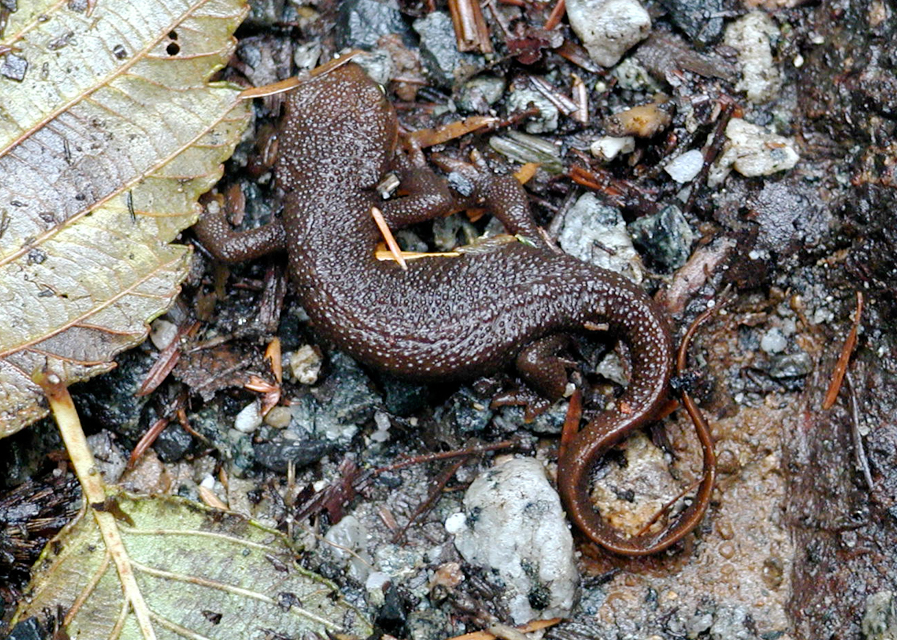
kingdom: Animalia
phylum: Chordata
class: Amphibia
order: Caudata
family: Salamandridae
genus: Taricha
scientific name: Taricha granulosa
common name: Roughskin newt
